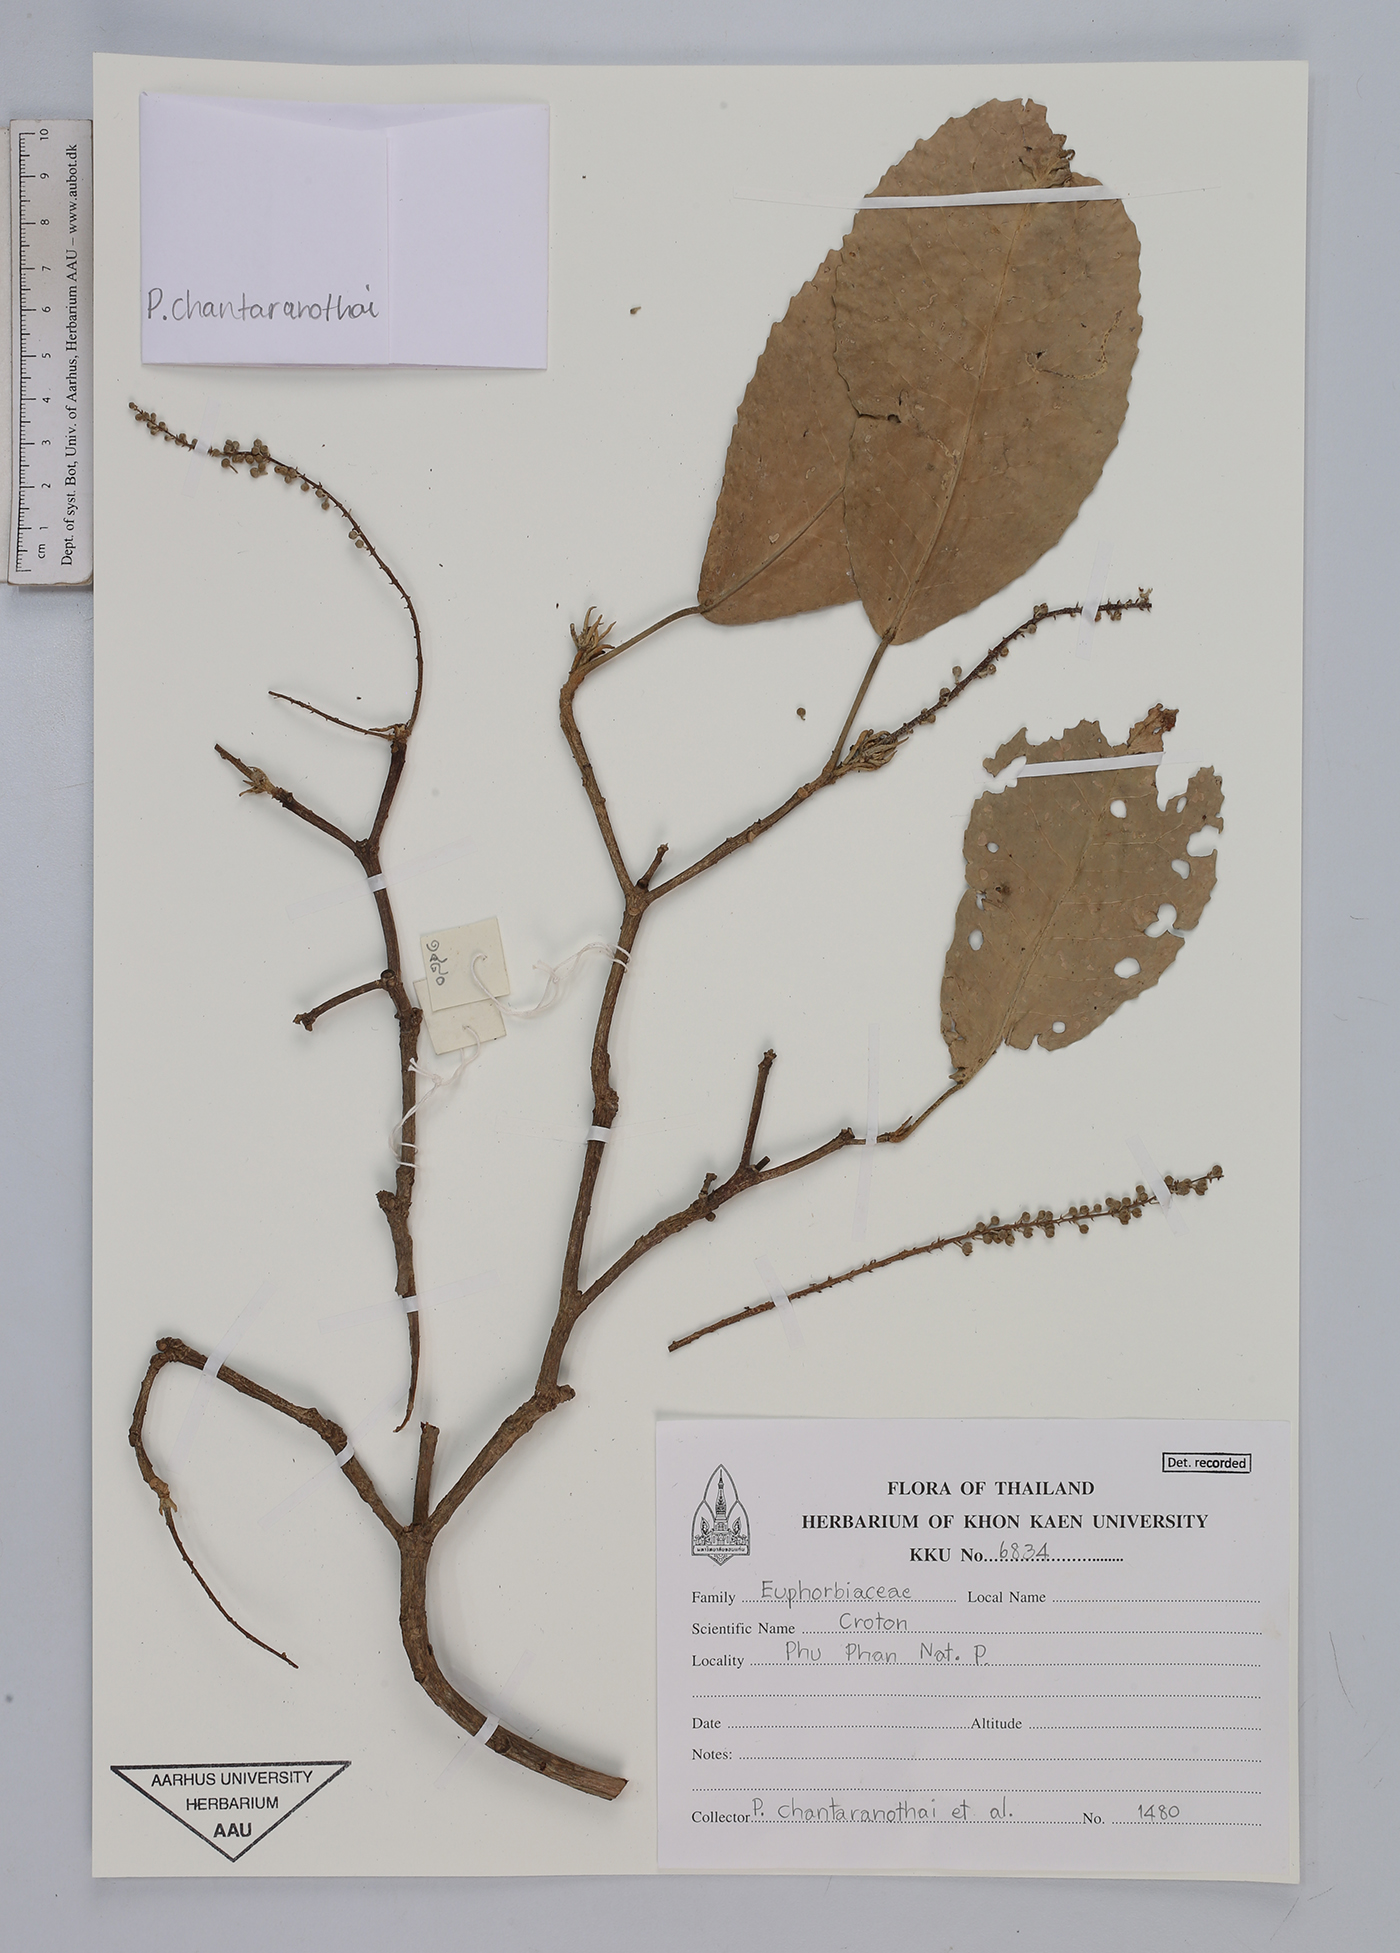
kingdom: Plantae
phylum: Tracheophyta
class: Magnoliopsida
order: Malpighiales
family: Euphorbiaceae
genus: Croton
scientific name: Croton
